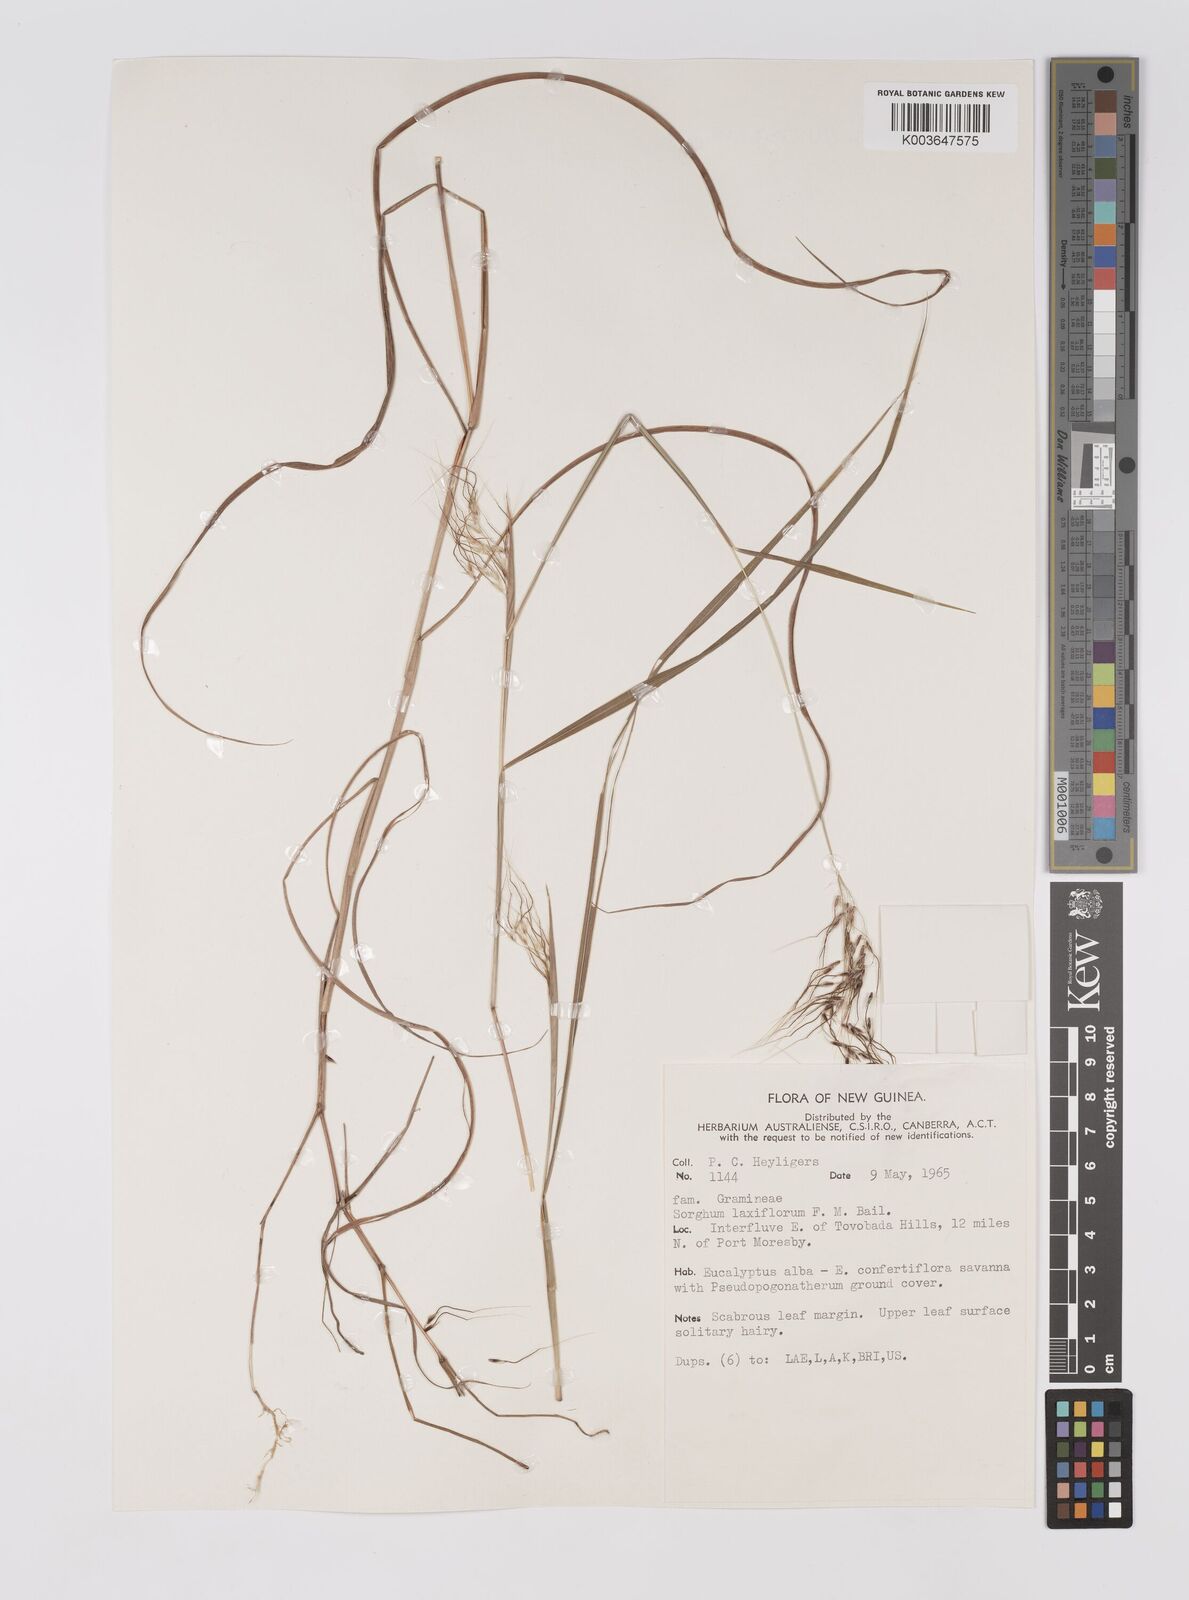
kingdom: Plantae
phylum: Tracheophyta
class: Liliopsida
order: Poales
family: Poaceae
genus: Sorghum
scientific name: Sorghum laxiflorum
